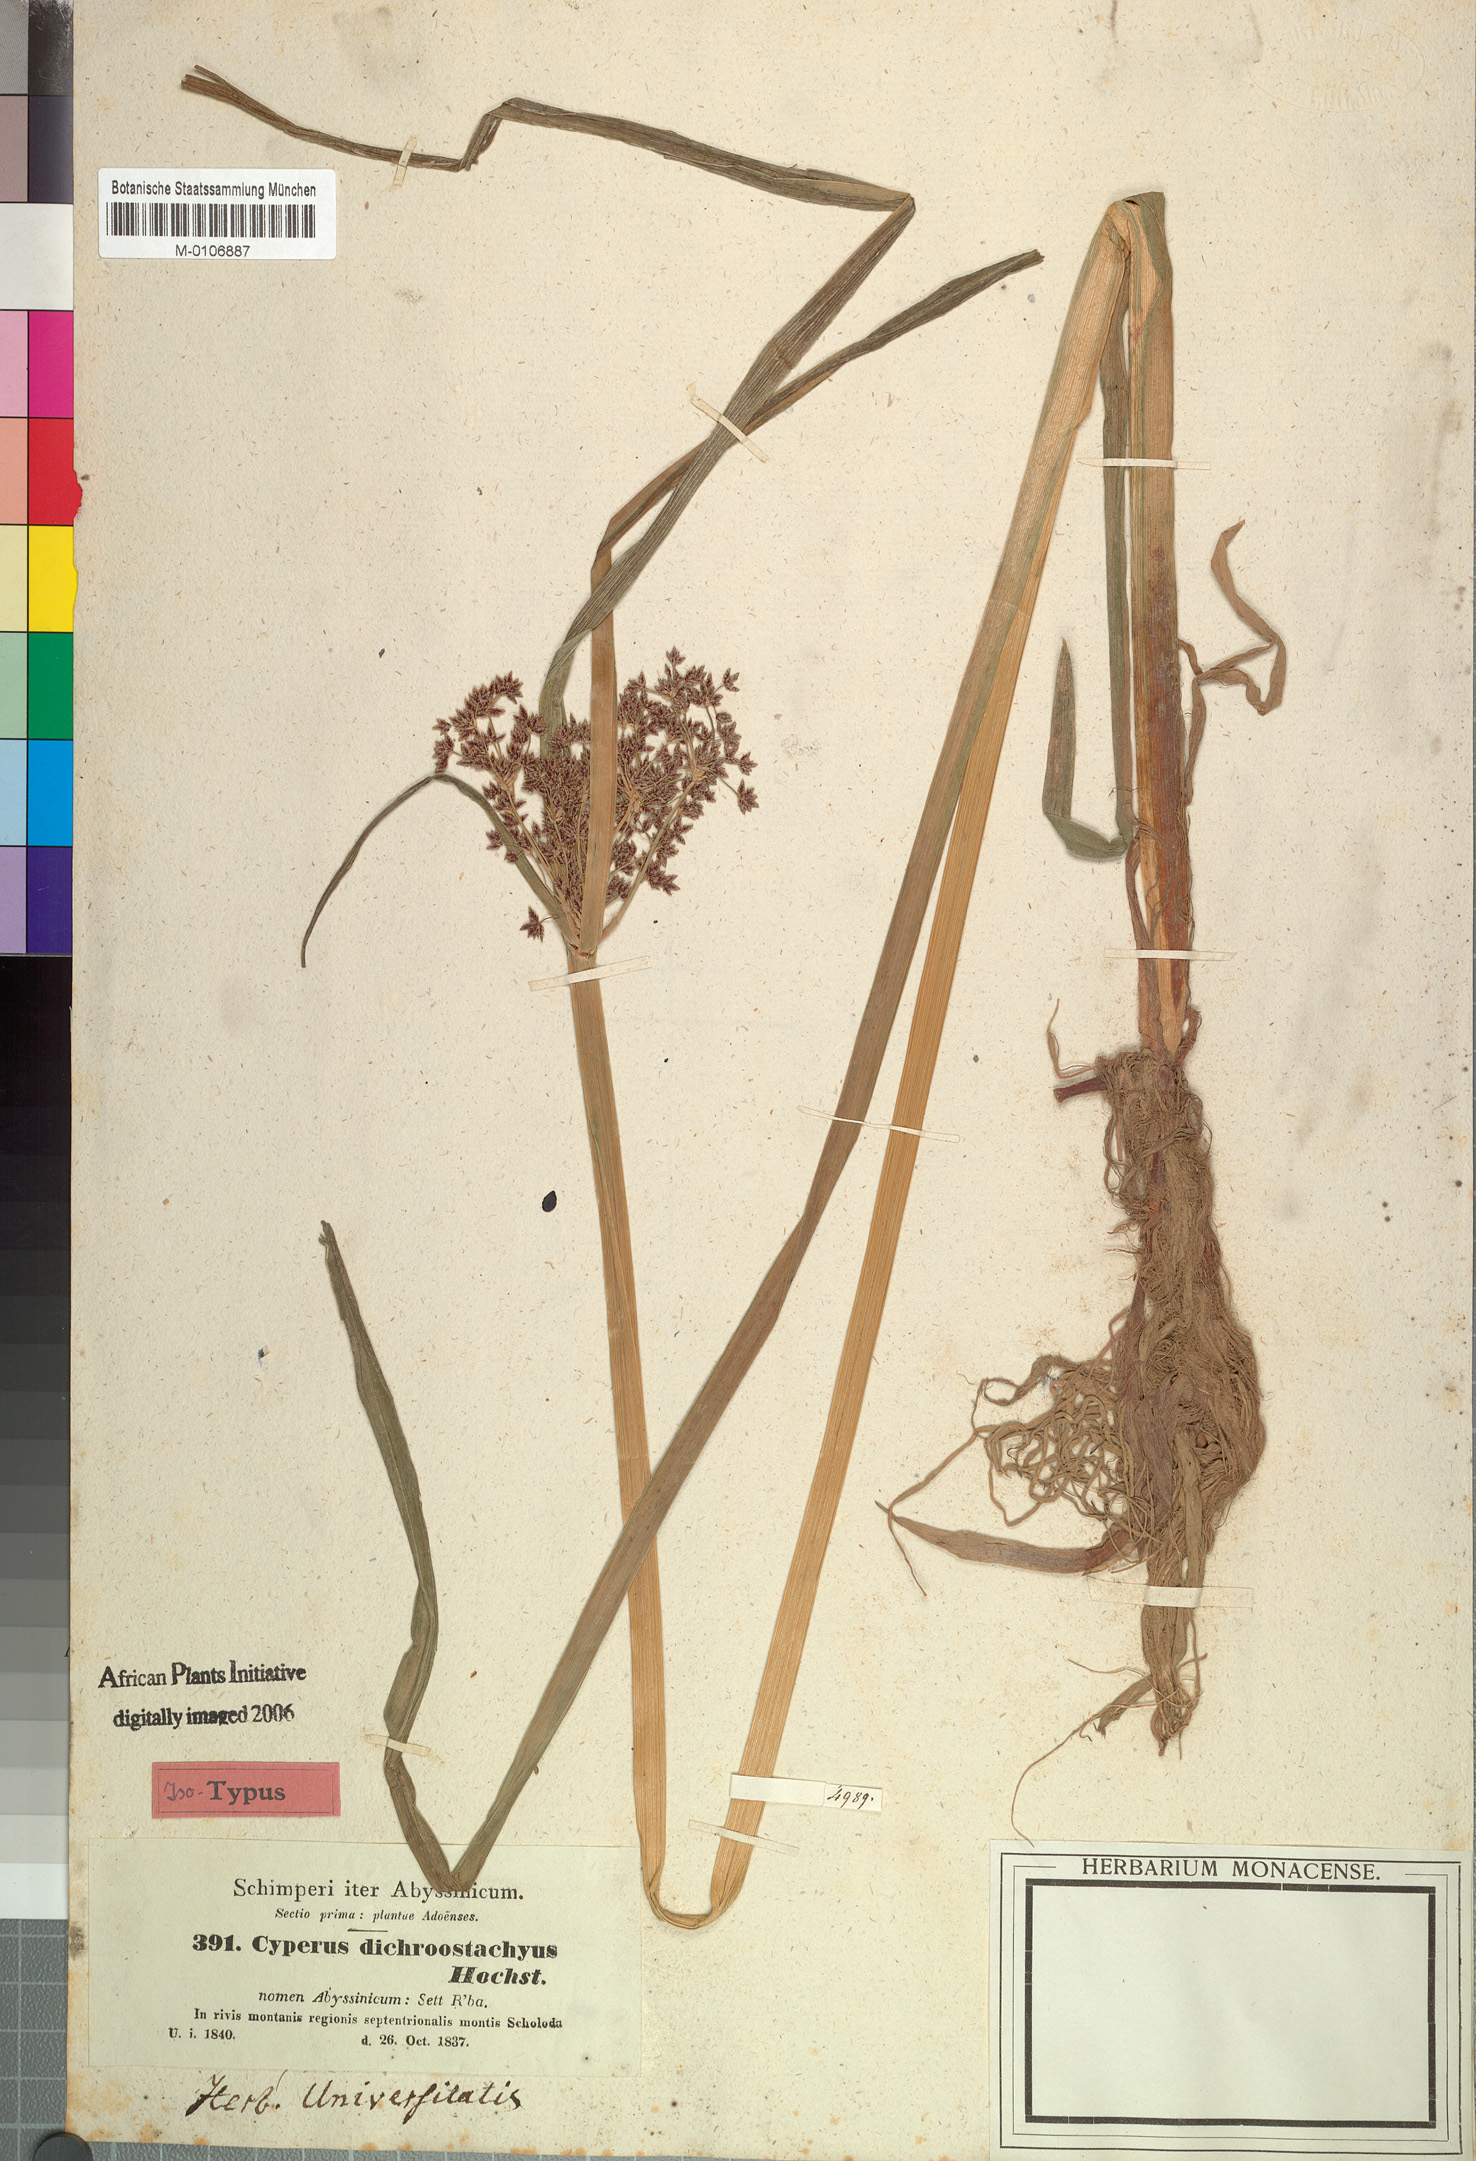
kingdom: Plantae
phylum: Tracheophyta
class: Liliopsida
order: Poales
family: Cyperaceae
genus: Cyperus
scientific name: Cyperus dichrostachyus
